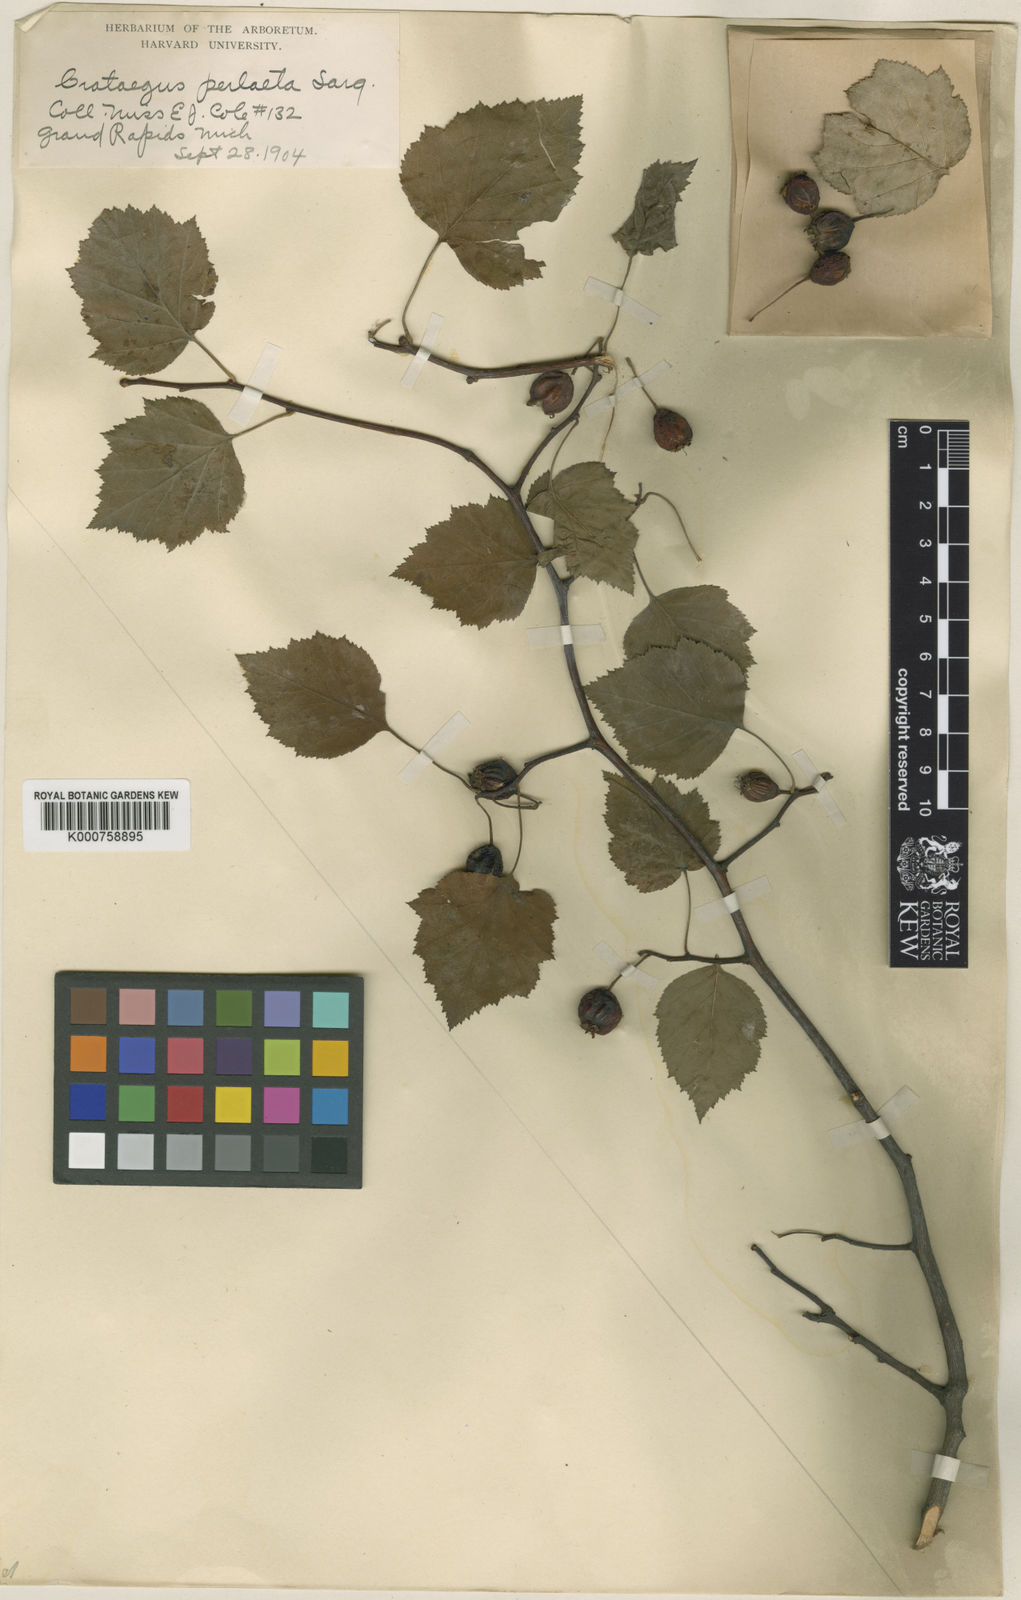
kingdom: Plantae
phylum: Tracheophyta
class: Magnoliopsida
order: Rosales
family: Rosaceae
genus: Crataegus
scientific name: Crataegus perlaeta
